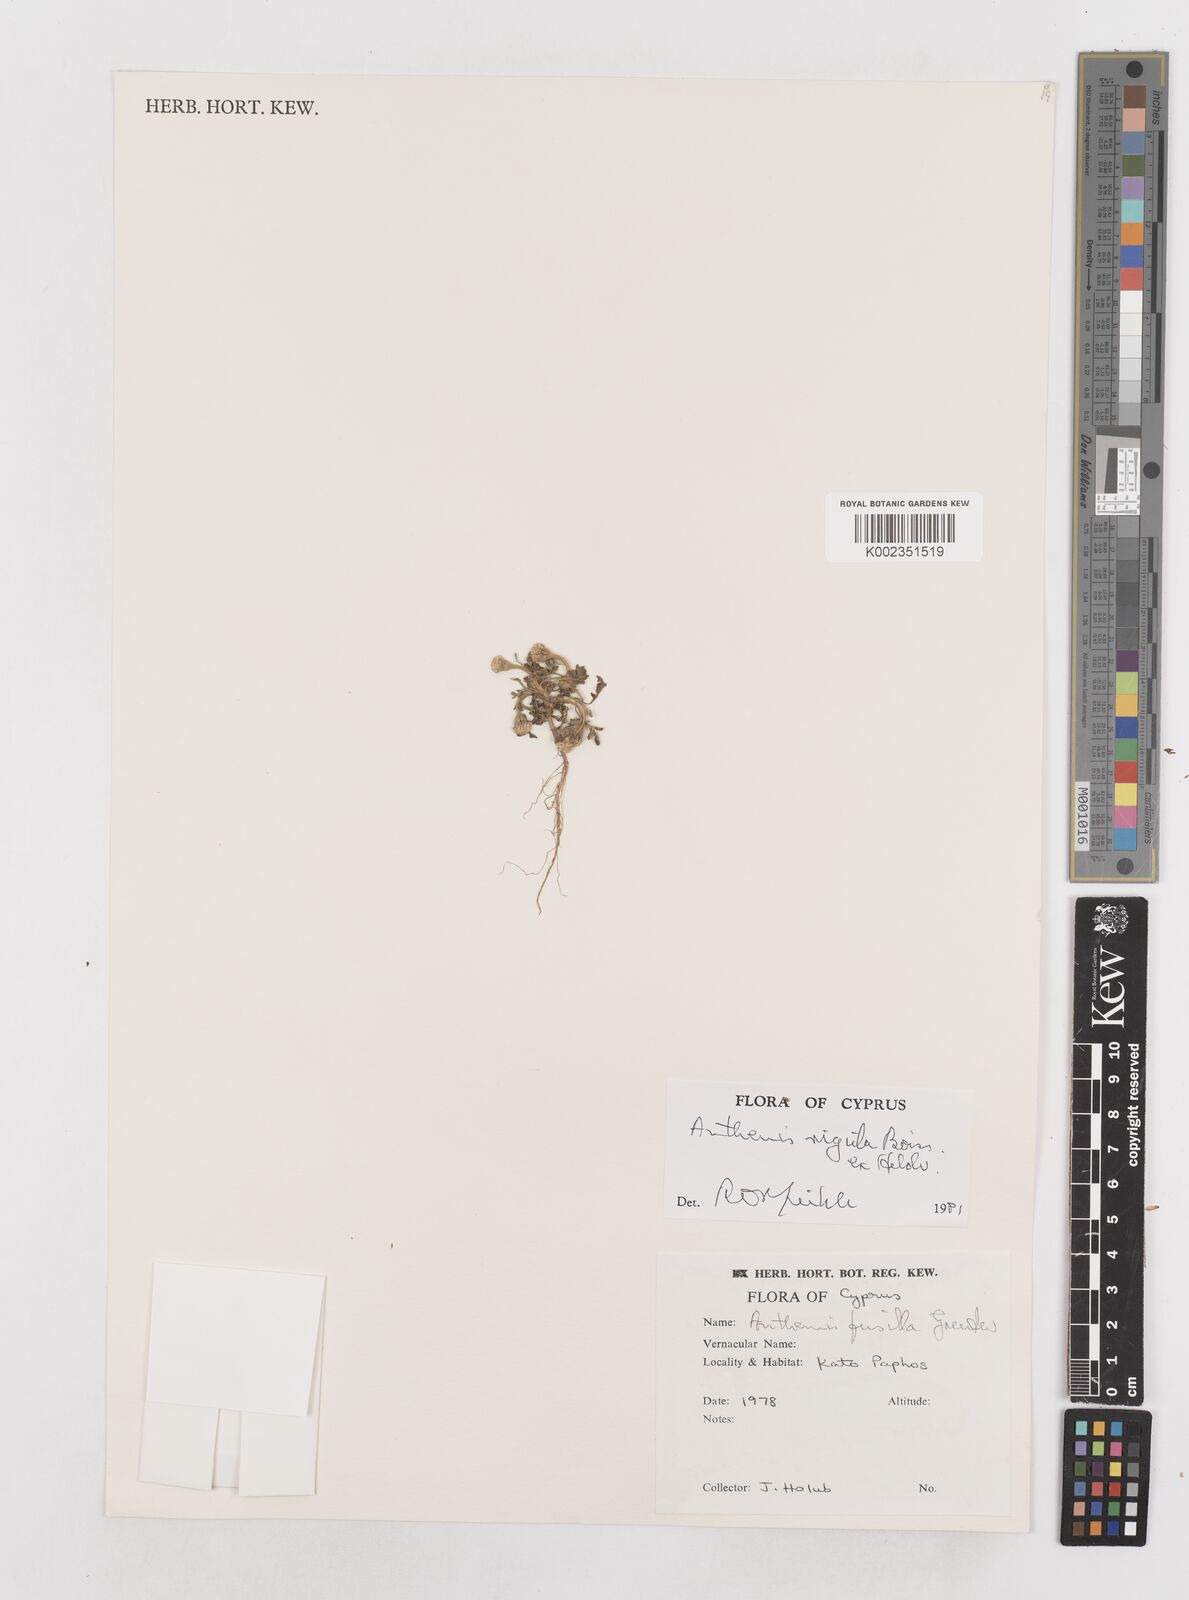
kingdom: Plantae
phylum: Tracheophyta
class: Magnoliopsida
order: Asterales
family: Asteraceae
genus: Anthemis
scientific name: Anthemis rigida
